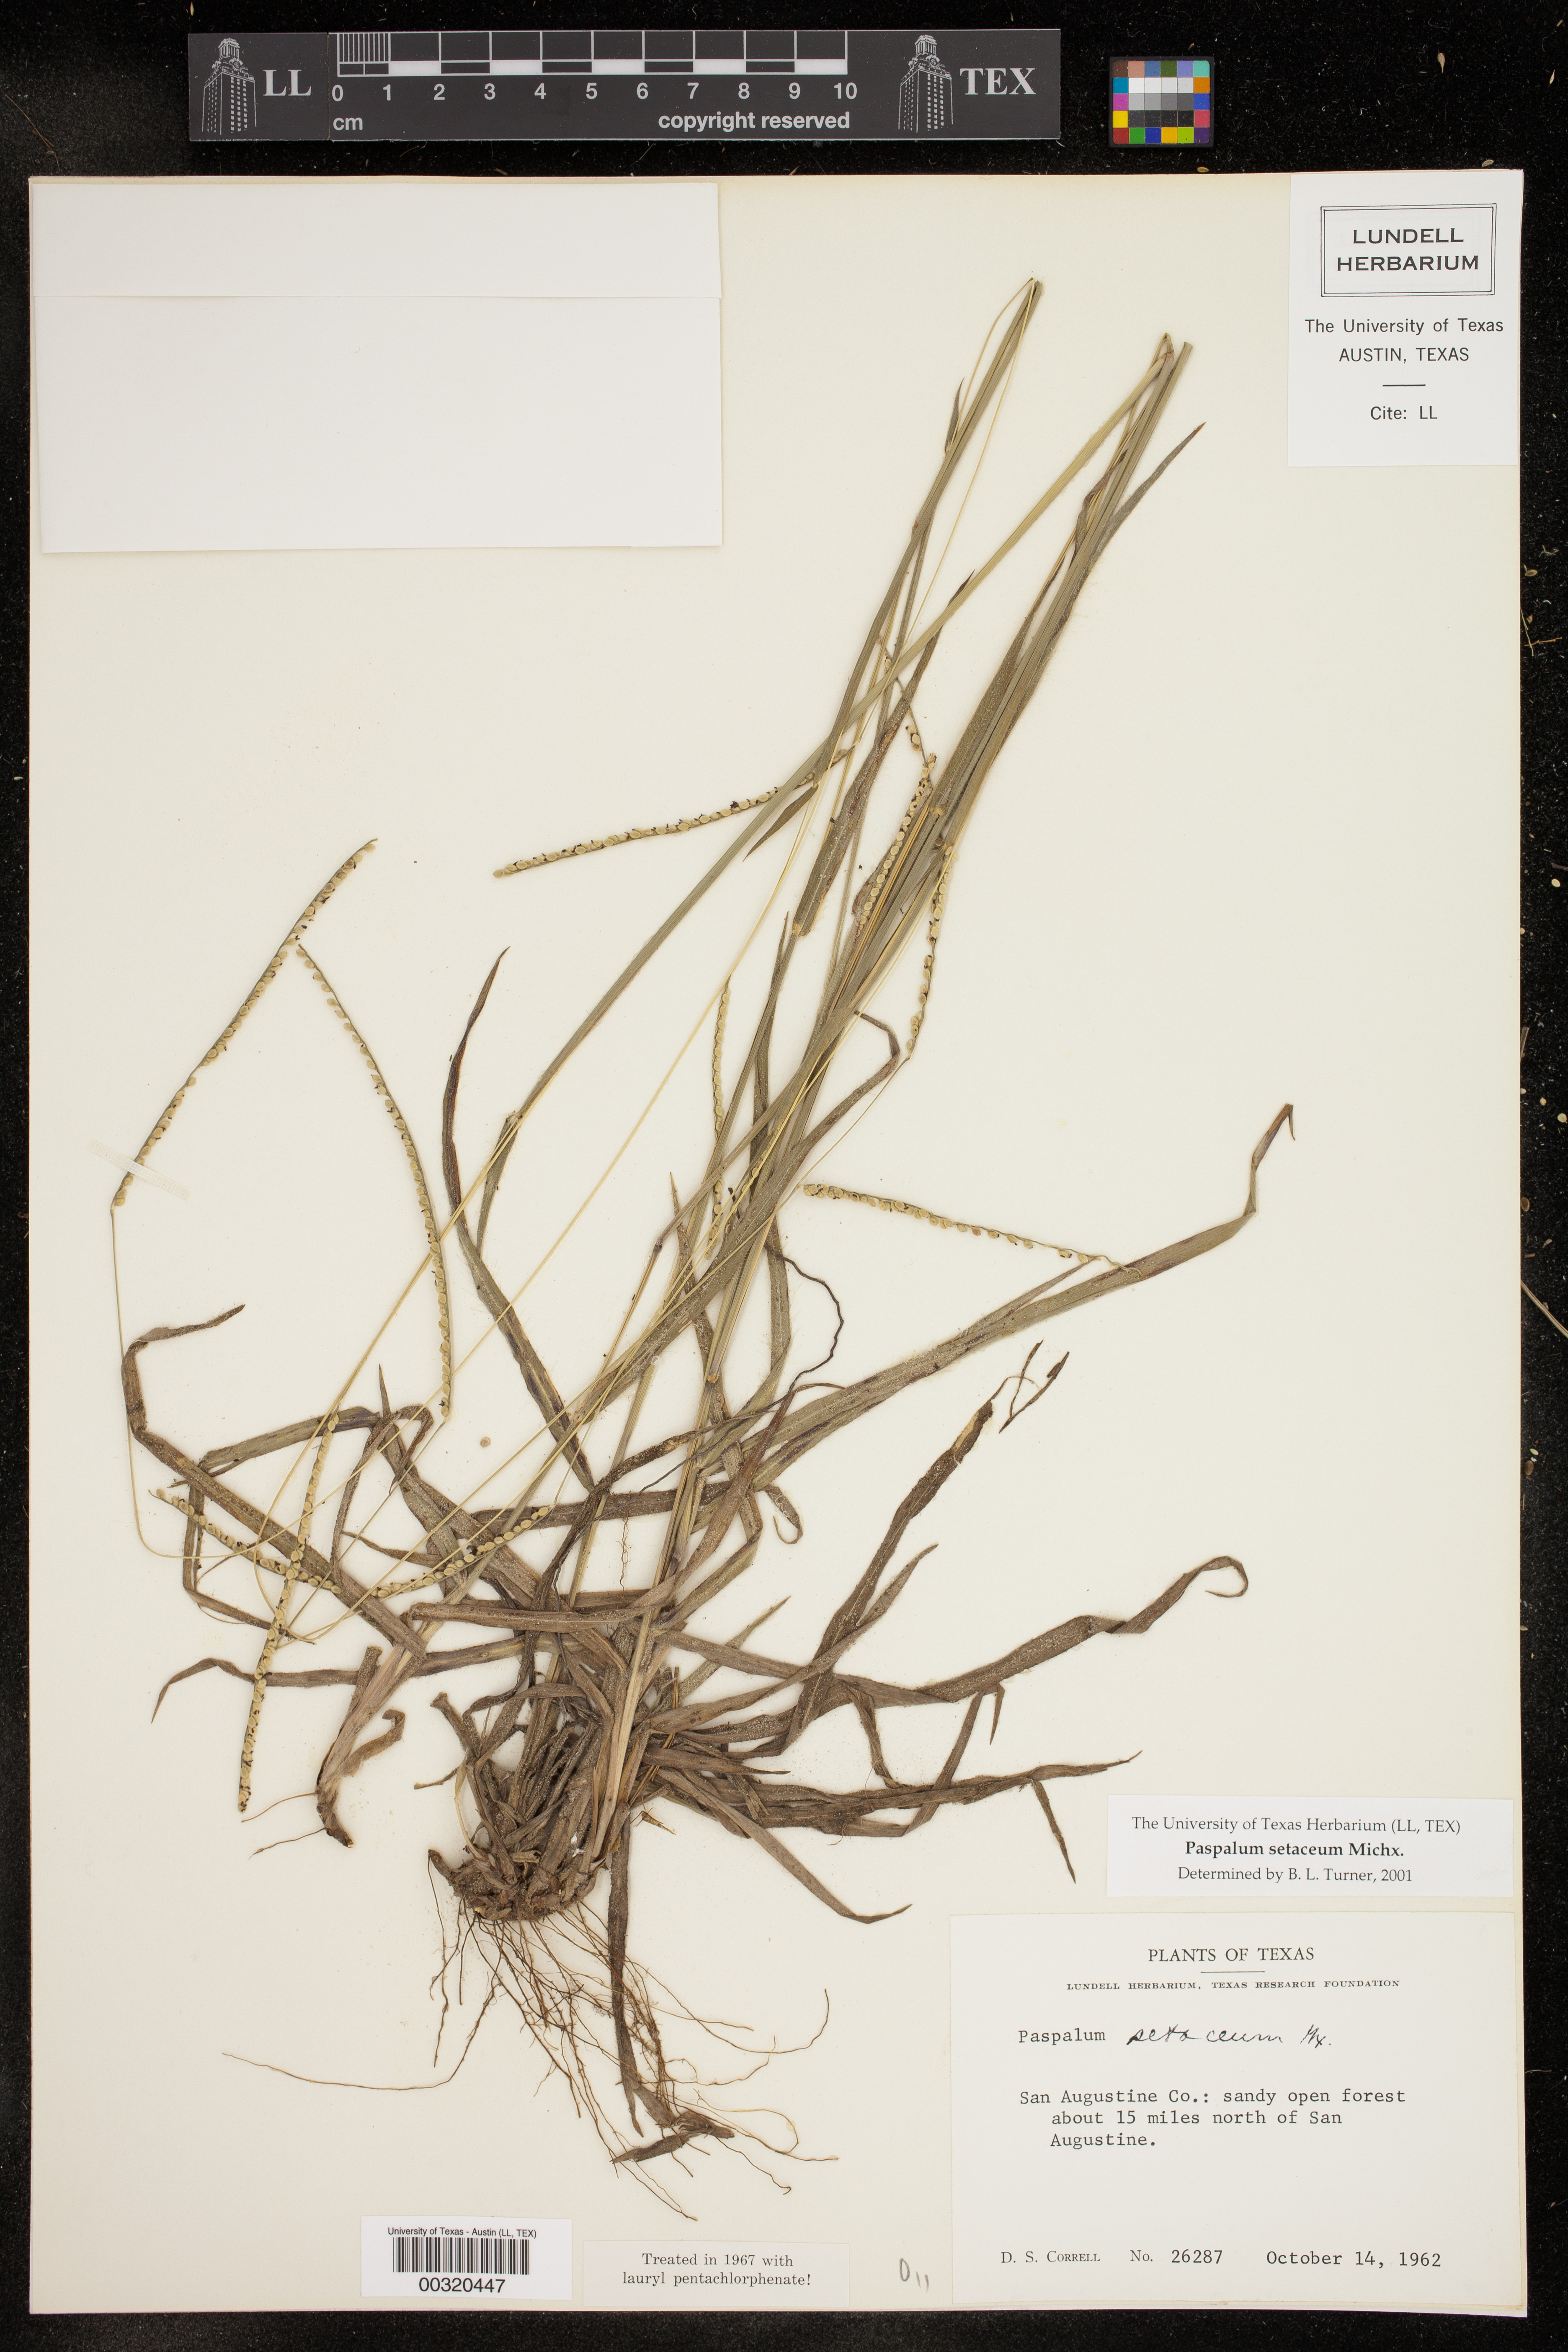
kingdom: Plantae
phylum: Tracheophyta
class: Liliopsida
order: Poales
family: Poaceae
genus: Paspalum
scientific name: Paspalum setaceum
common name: Slender paspalum
